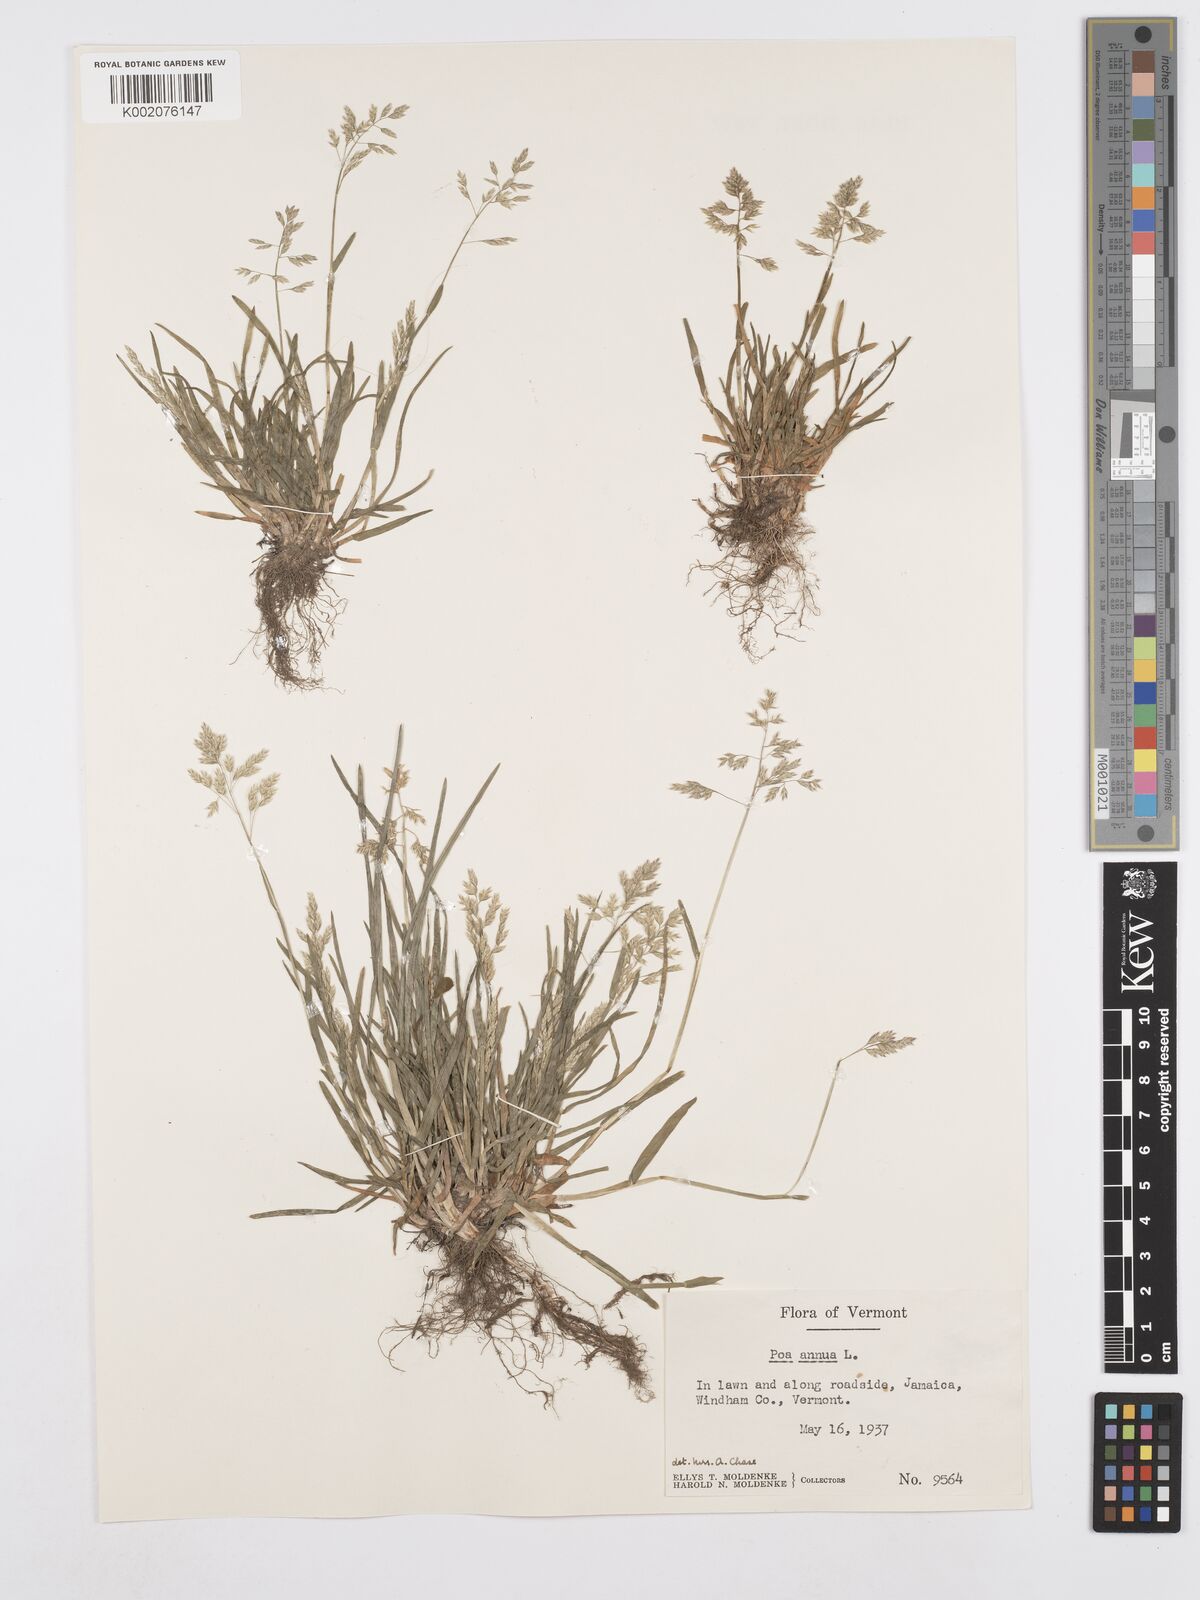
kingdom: Plantae
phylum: Tracheophyta
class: Liliopsida
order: Poales
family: Poaceae
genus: Poa
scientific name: Poa annua
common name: Annual bluegrass
